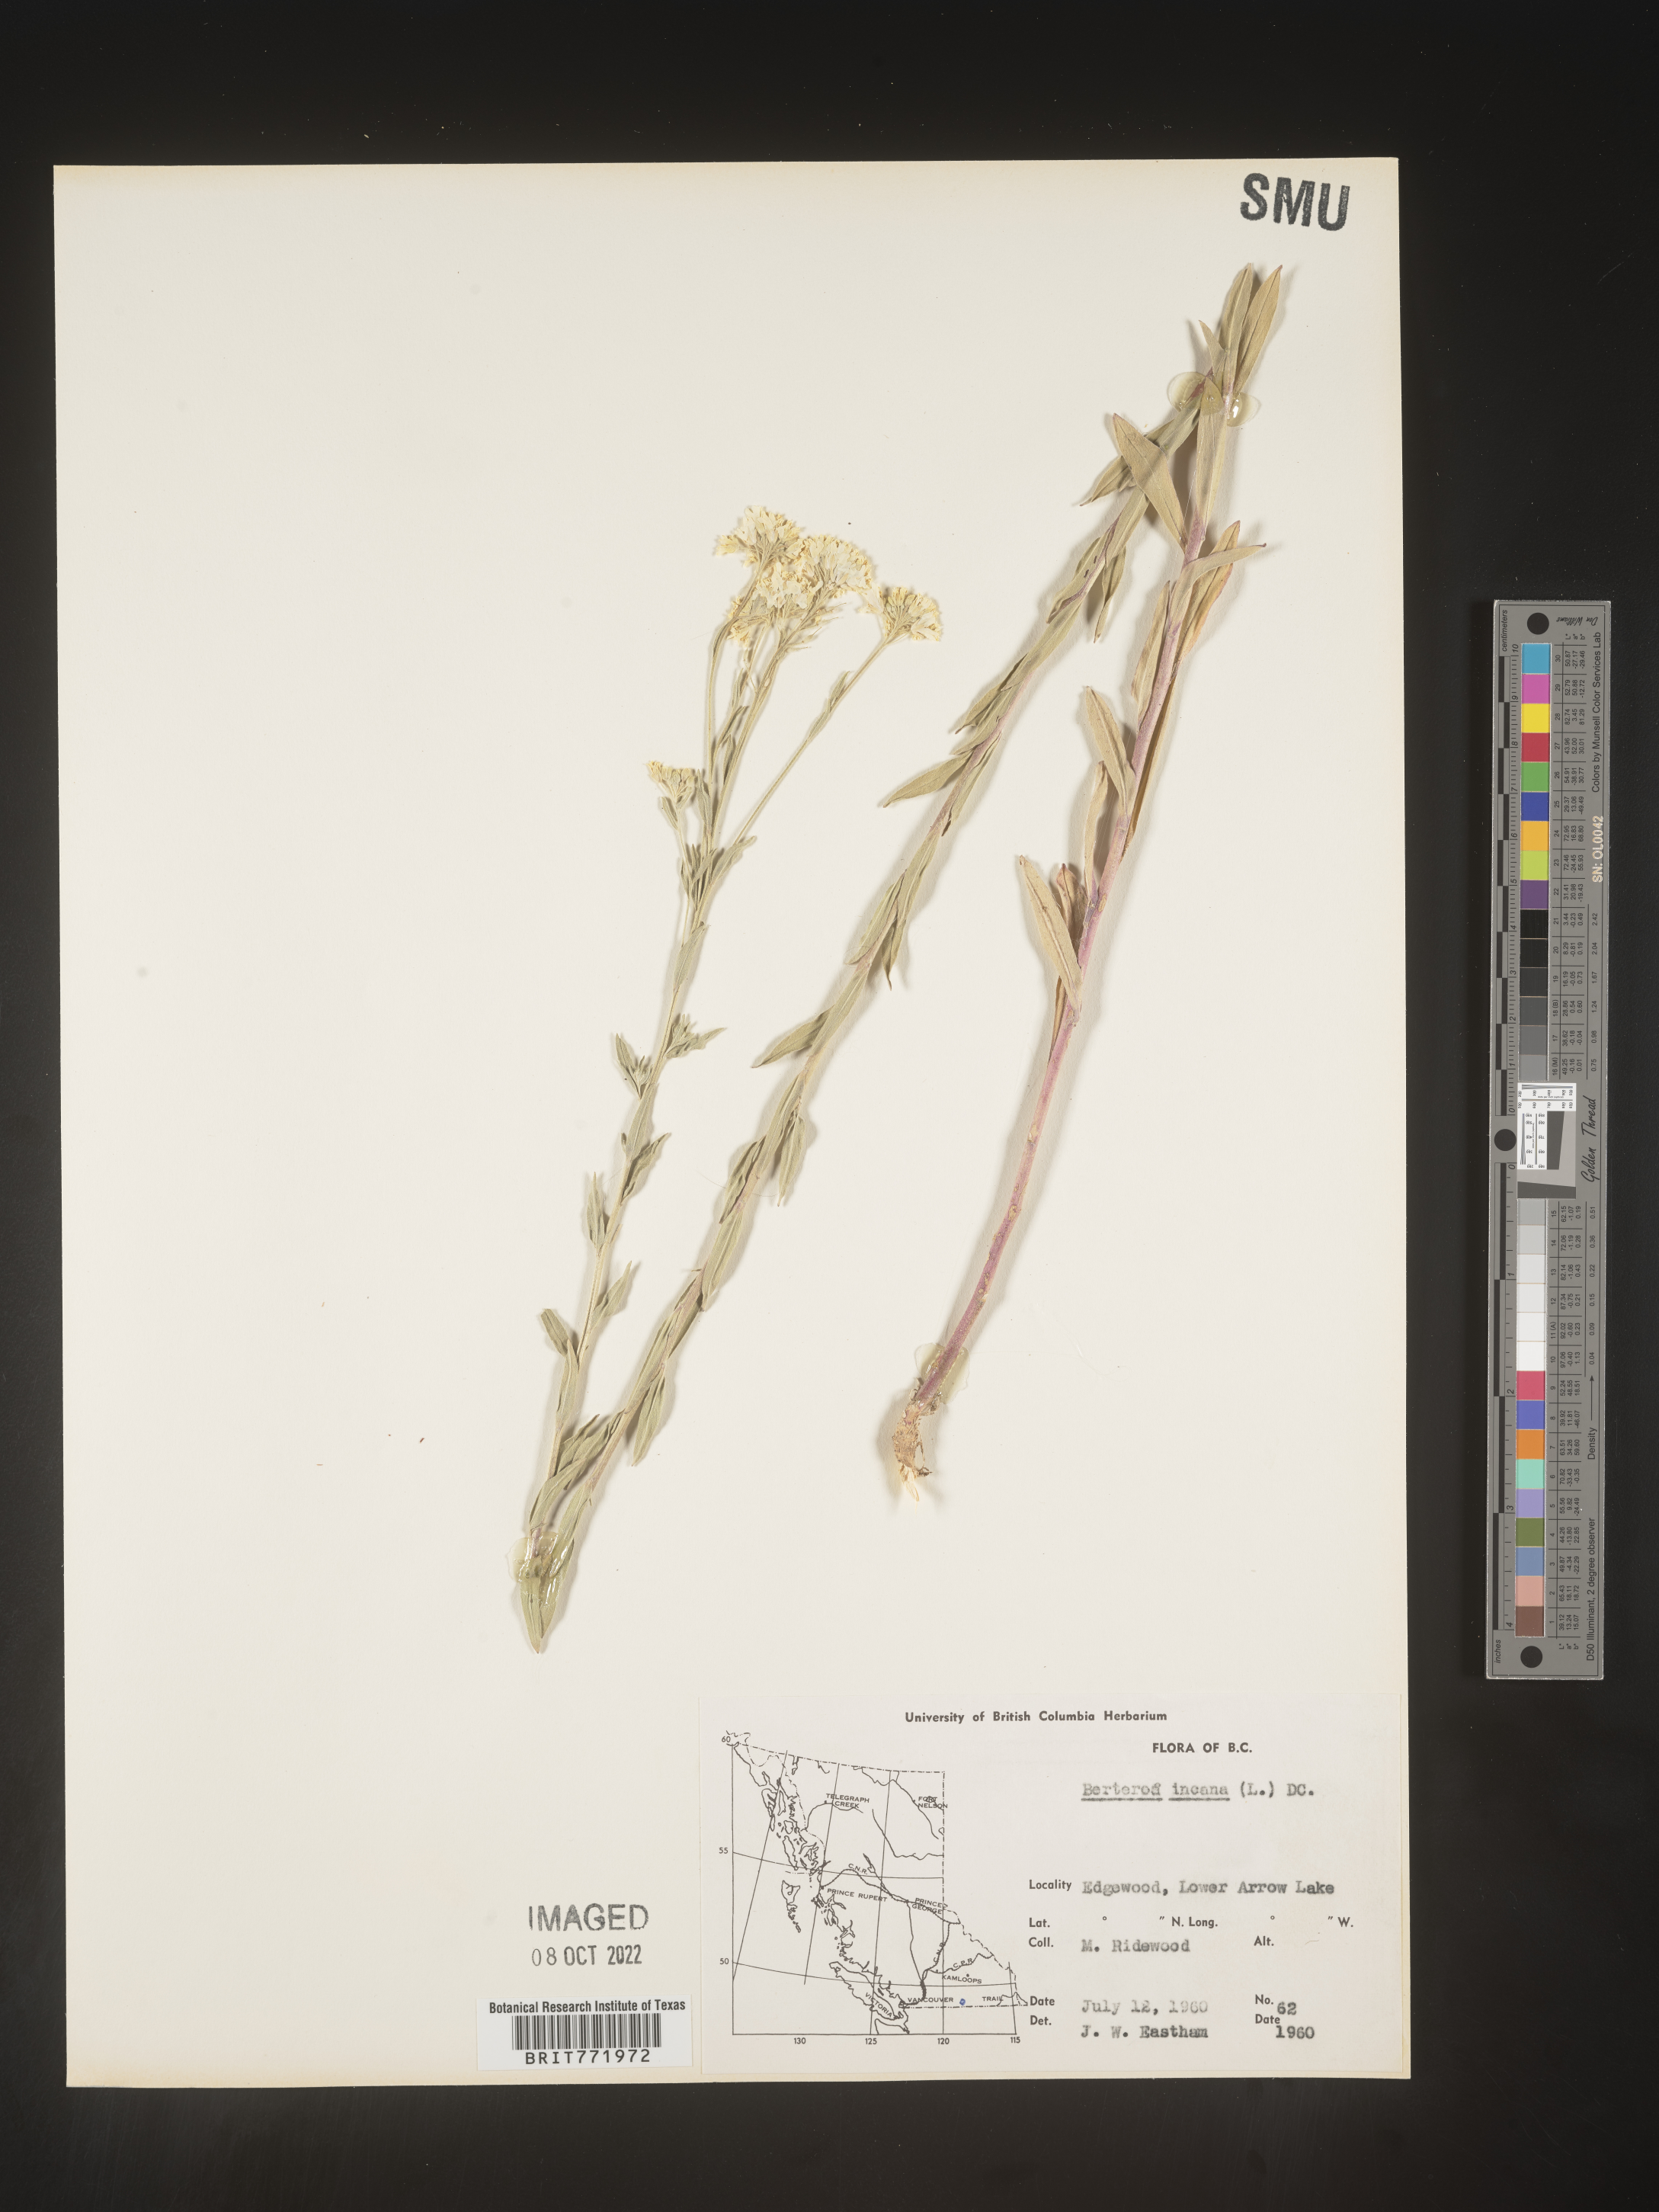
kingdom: Plantae
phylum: Tracheophyta
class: Magnoliopsida
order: Brassicales
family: Brassicaceae
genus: Berteroa
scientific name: Berteroa incana
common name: Hoary alison
